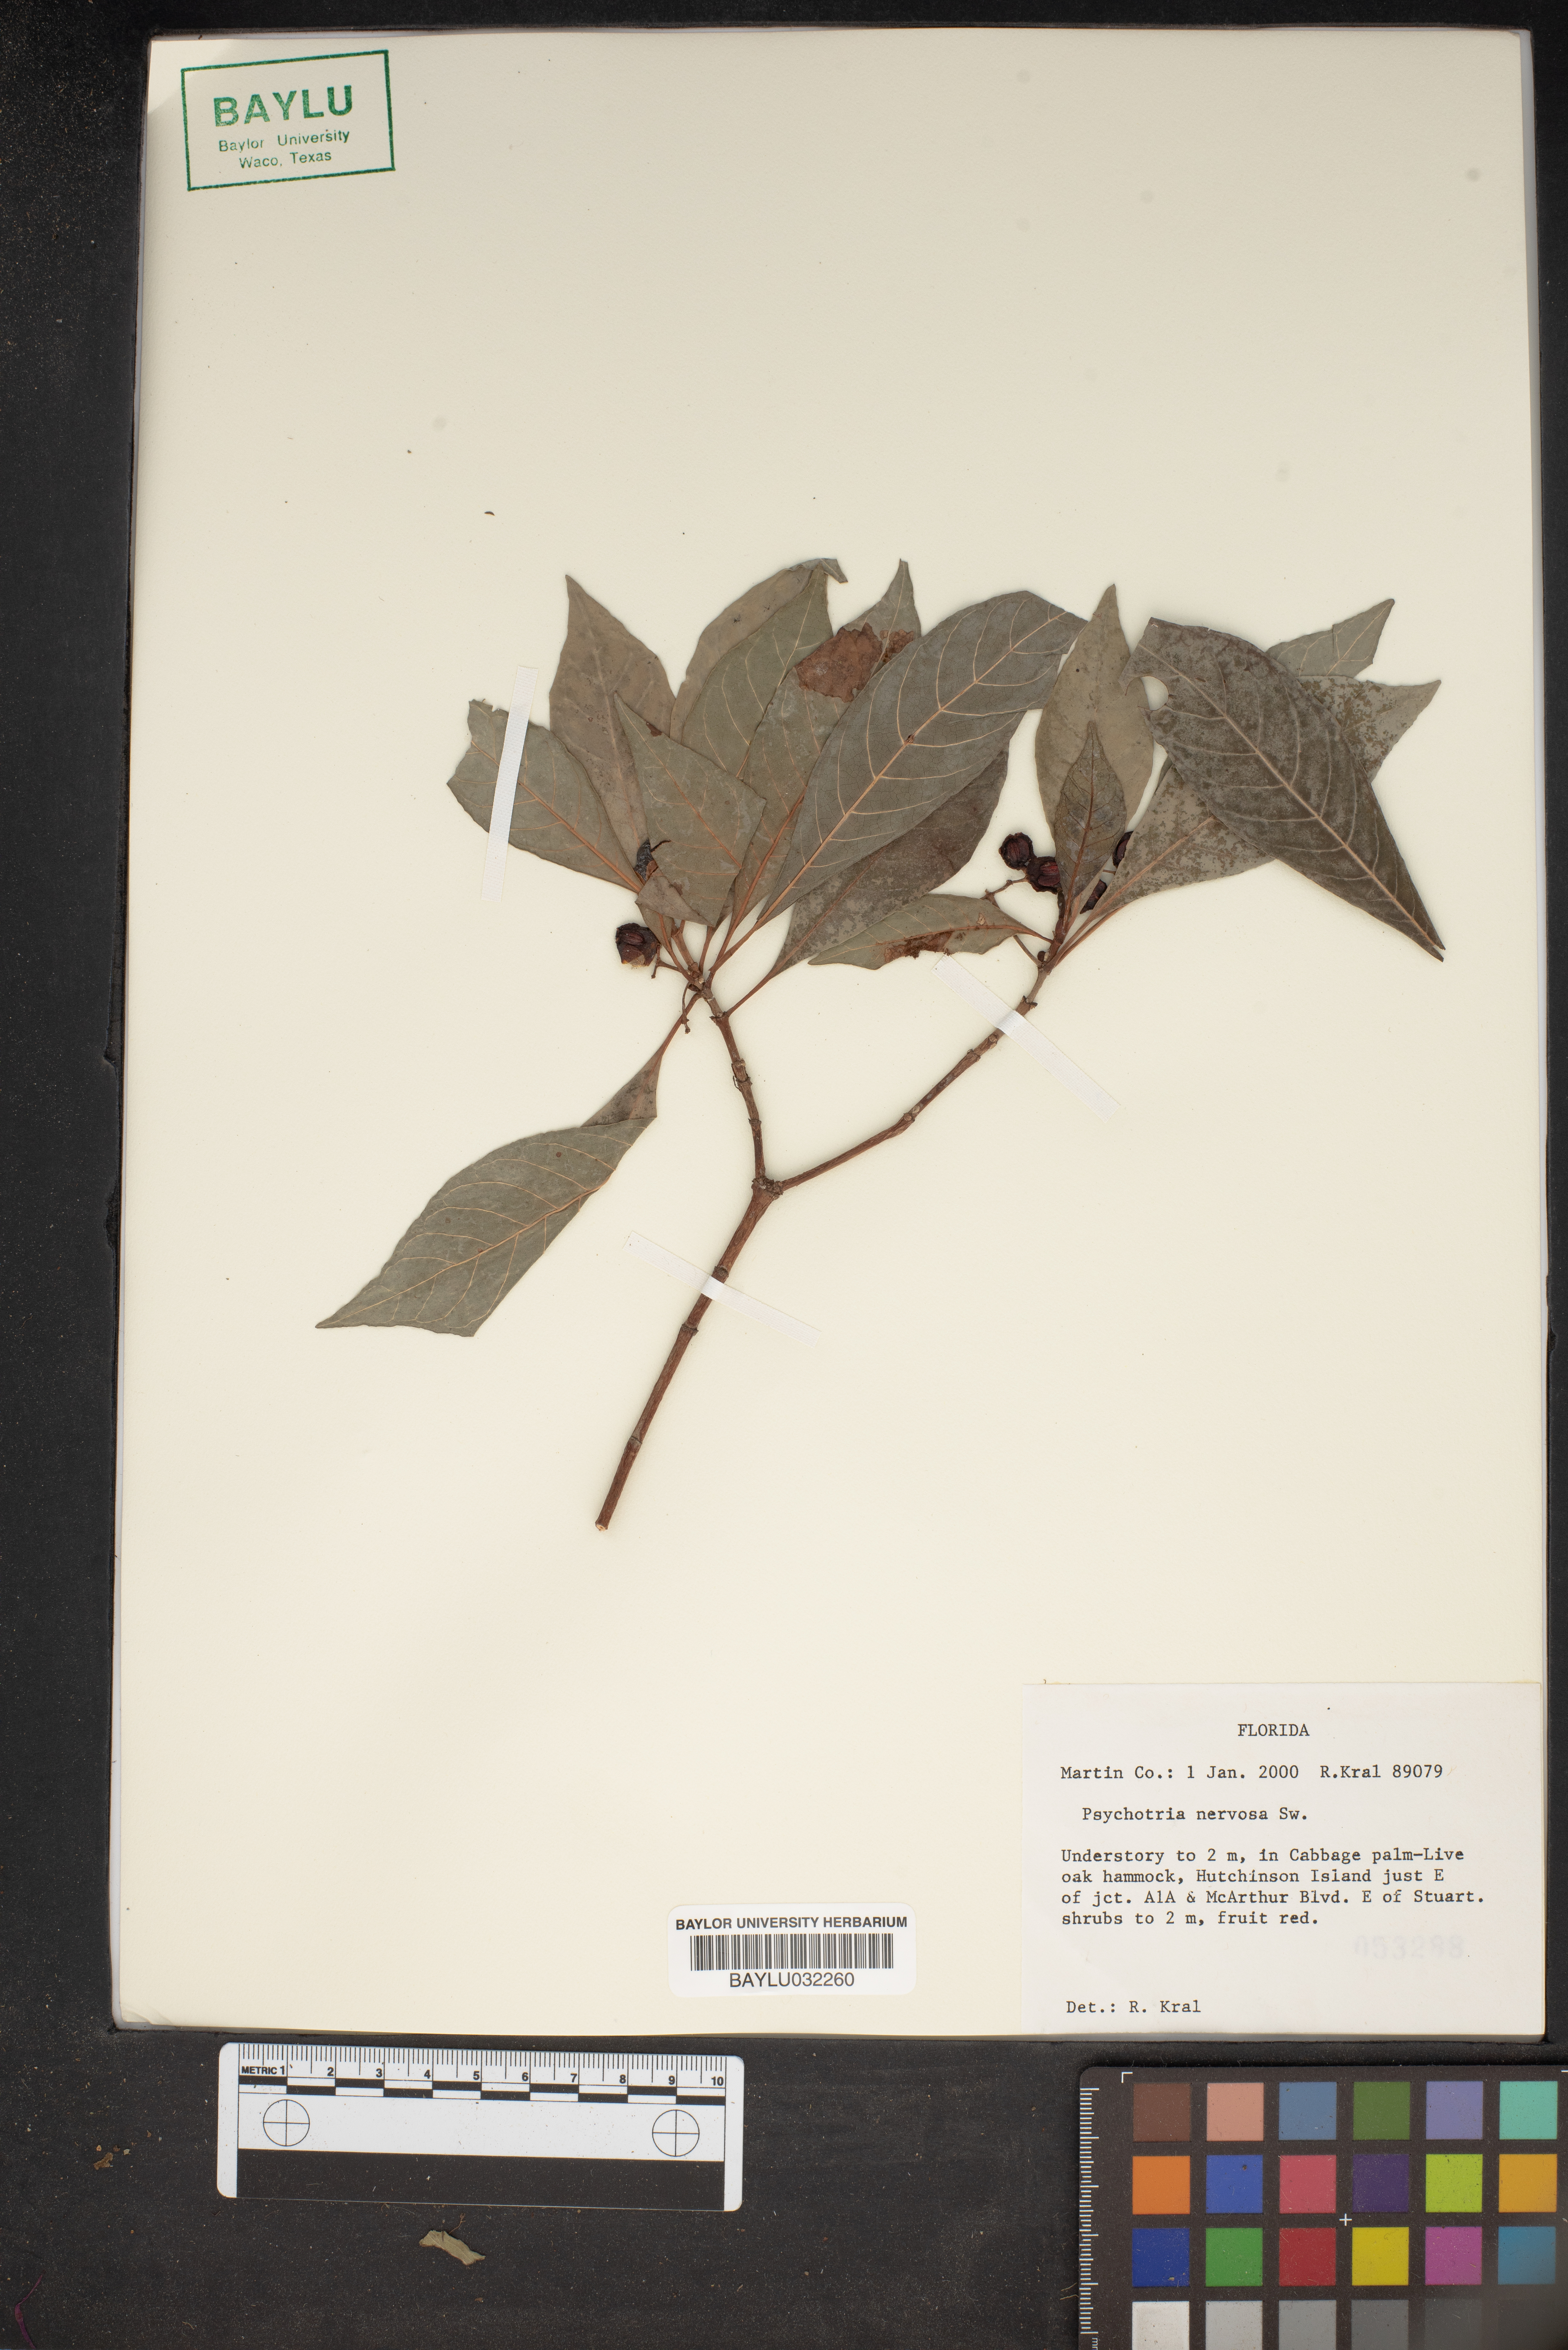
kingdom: Plantae
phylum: Tracheophyta
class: Magnoliopsida
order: Gentianales
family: Rubiaceae
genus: Psychotria
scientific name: Psychotria nervosa
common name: Bastard cankerberry
